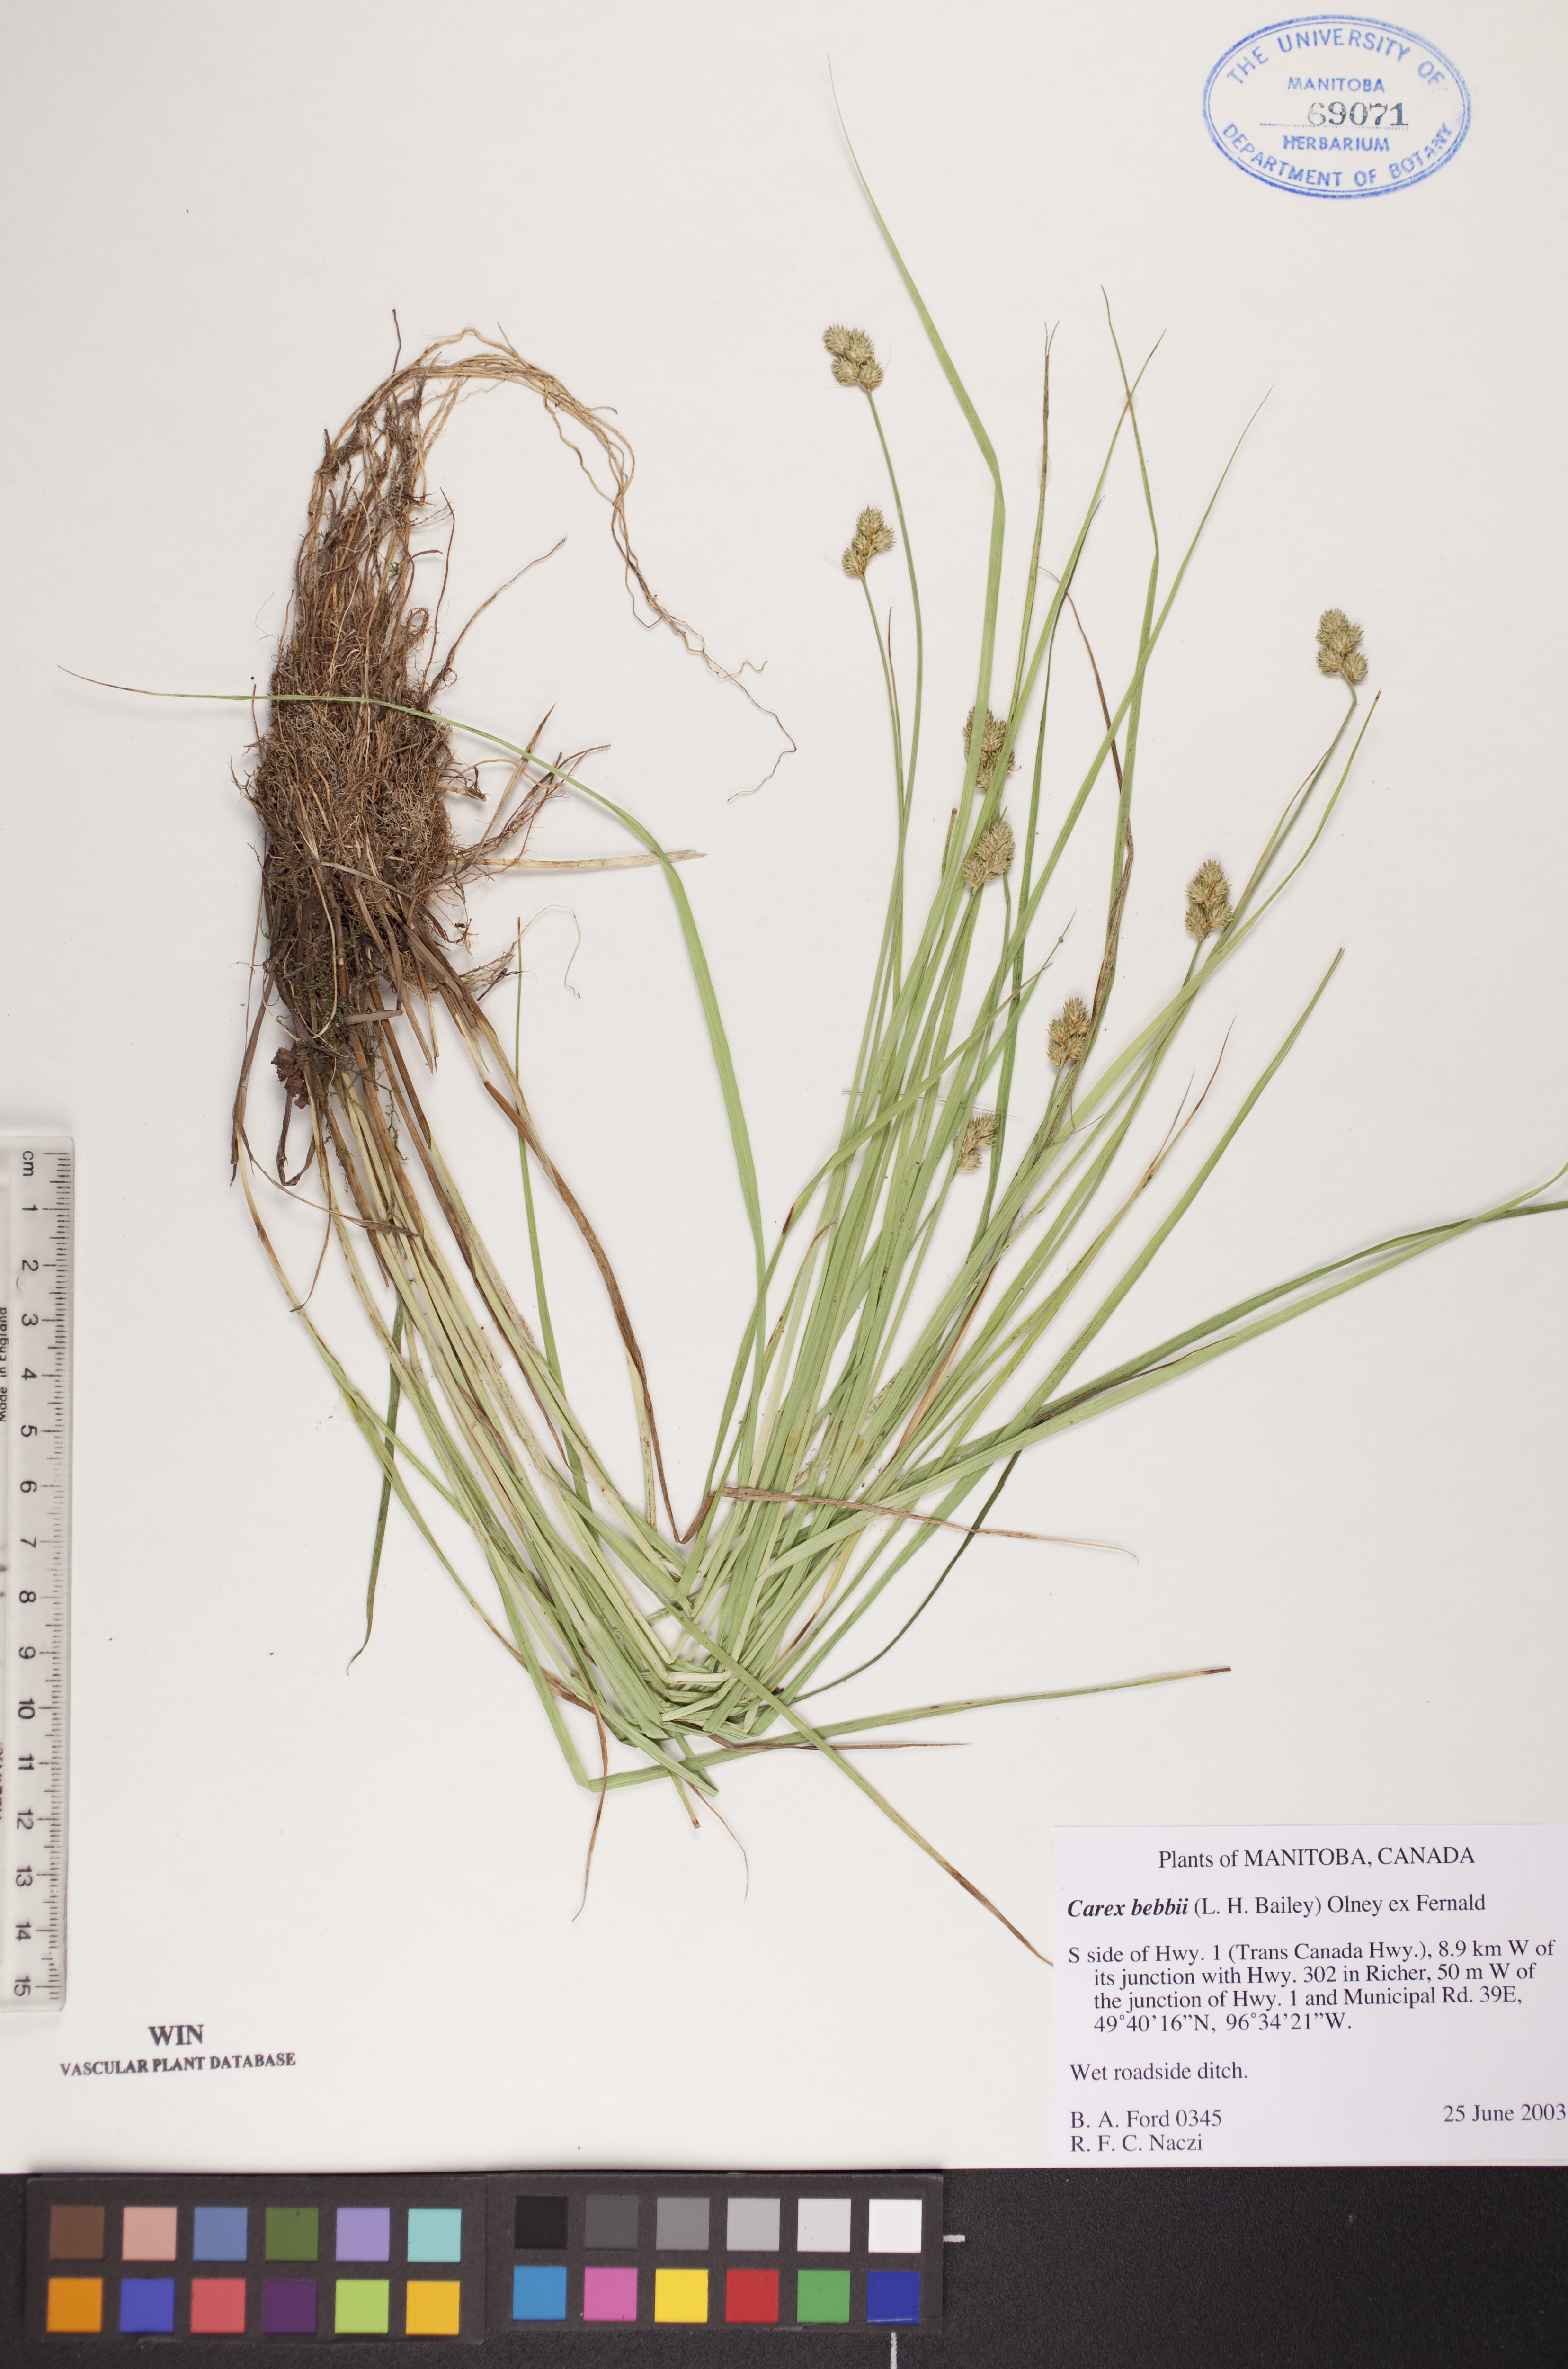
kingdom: Plantae
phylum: Tracheophyta
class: Liliopsida
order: Poales
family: Cyperaceae
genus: Carex
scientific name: Carex bebbii
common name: Bebb's sedge
